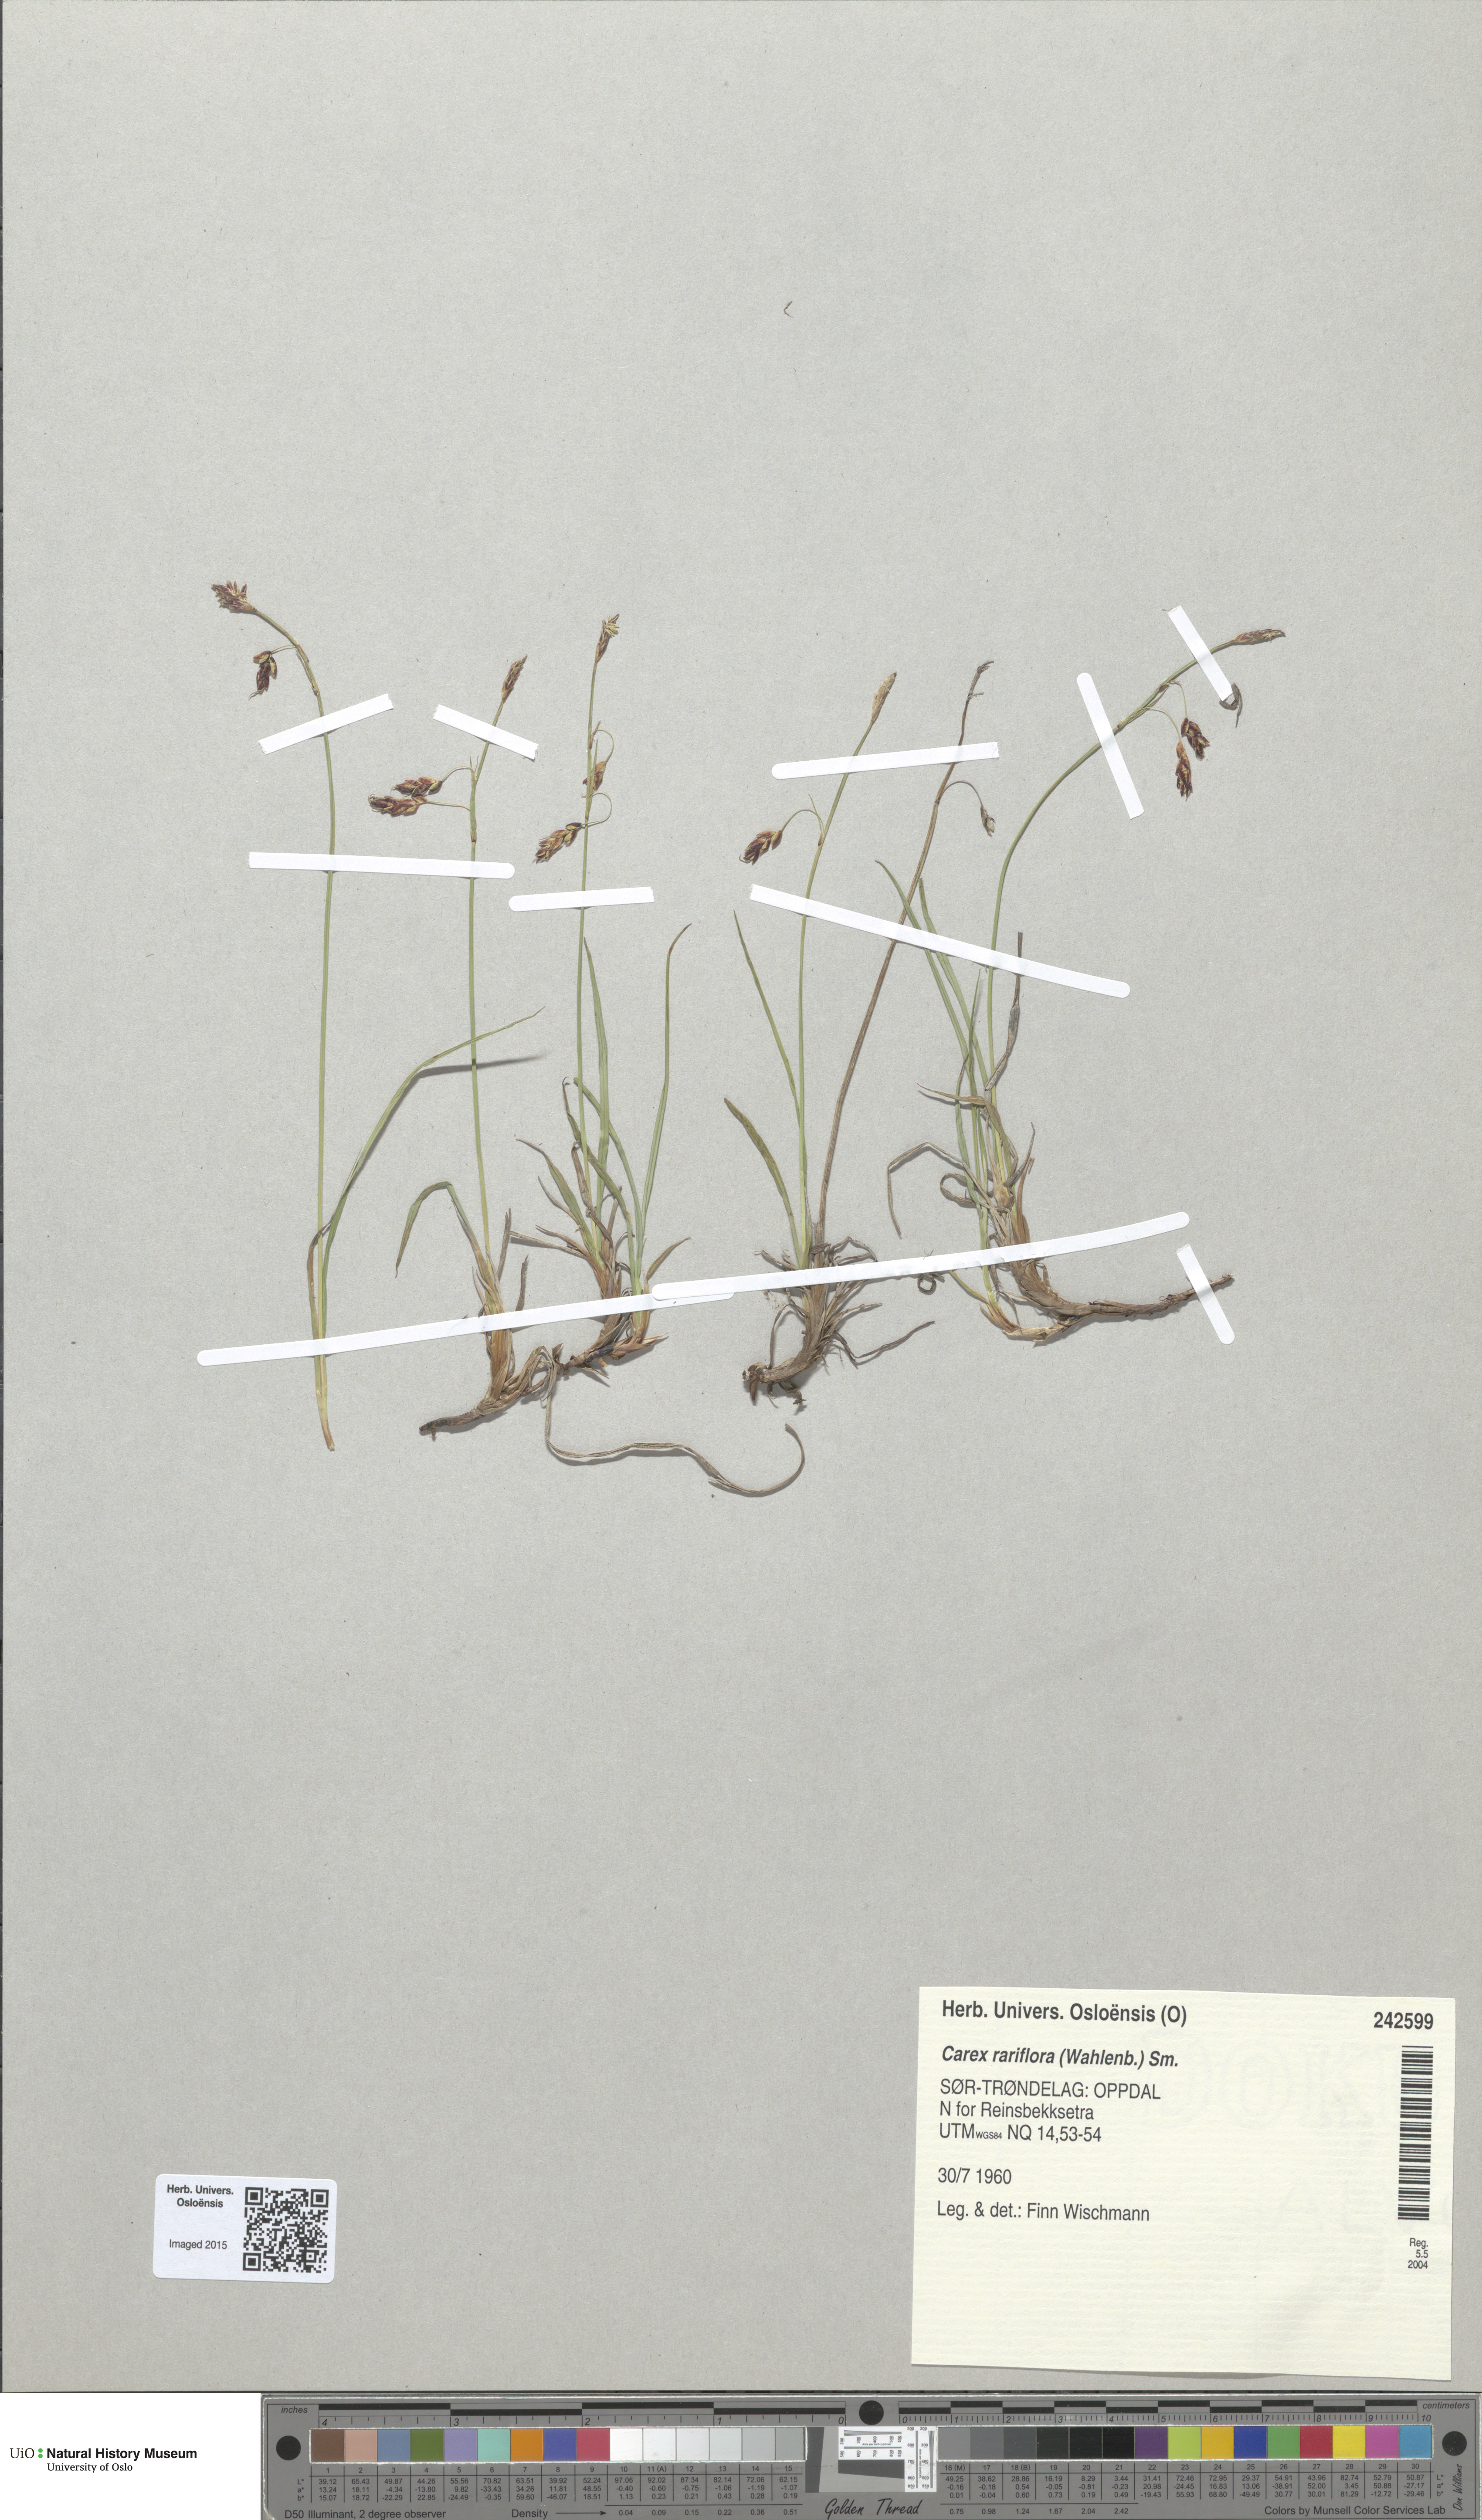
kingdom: Plantae
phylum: Tracheophyta
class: Liliopsida
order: Poales
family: Cyperaceae
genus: Carex
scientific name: Carex rariflora
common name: Loose-flowered alpine sedge
